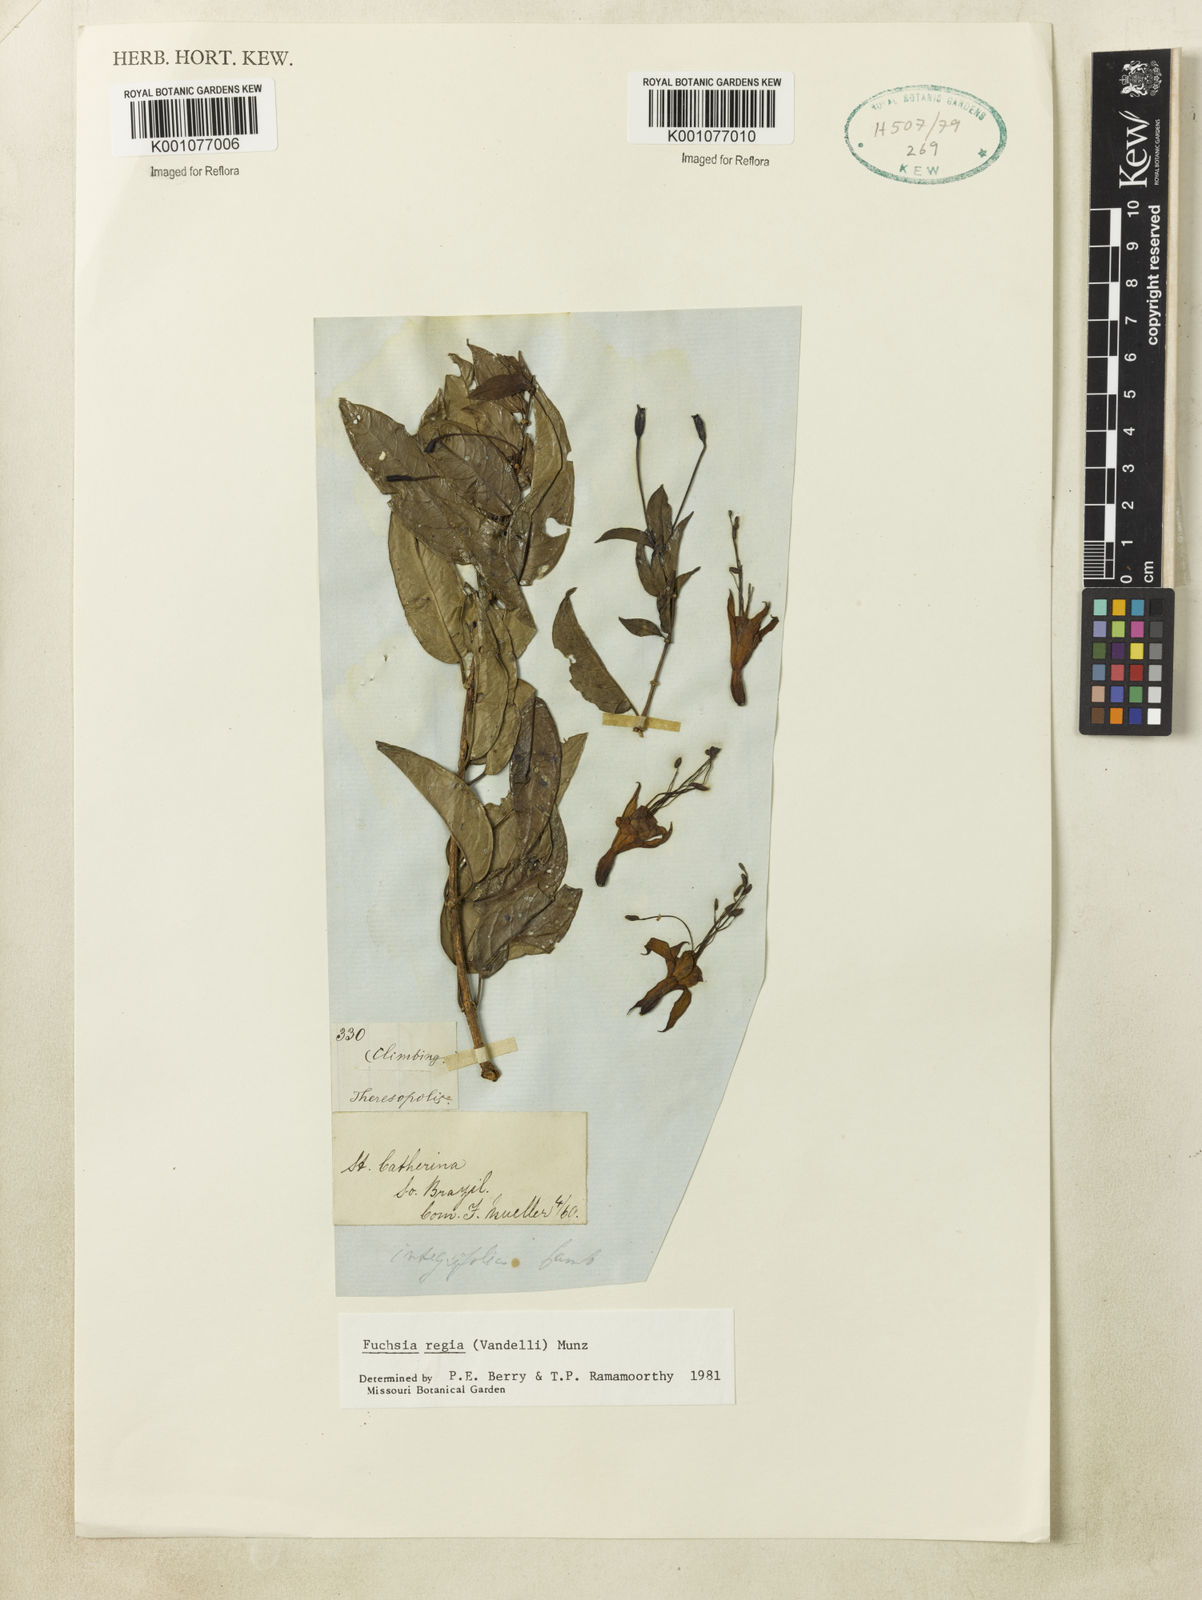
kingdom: Plantae
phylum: Tracheophyta
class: Magnoliopsida
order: Myrtales
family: Onagraceae
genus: Fuchsia
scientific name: Fuchsia regia
